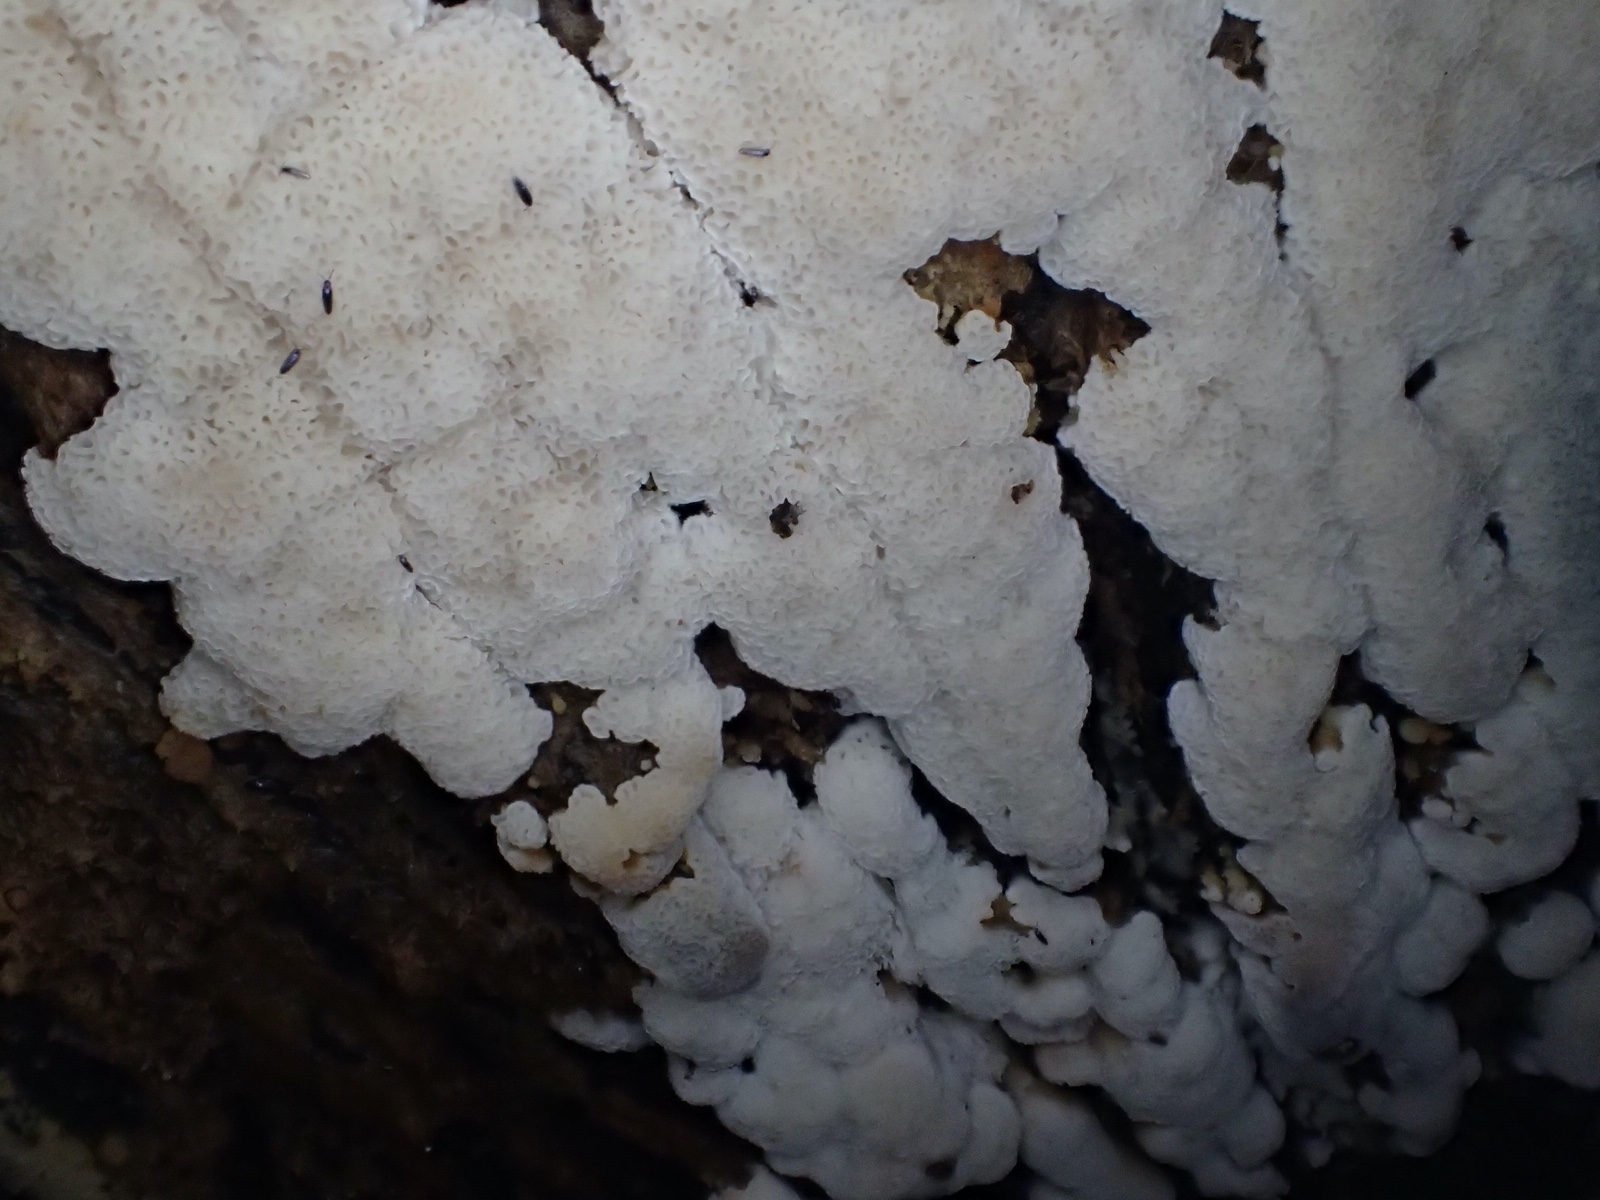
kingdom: Fungi
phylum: Basidiomycota
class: Agaricomycetes
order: Polyporales
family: Meripilaceae
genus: Rigidoporus
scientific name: Rigidoporus sanguinolentus
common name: blod-skorpeporesvamp
